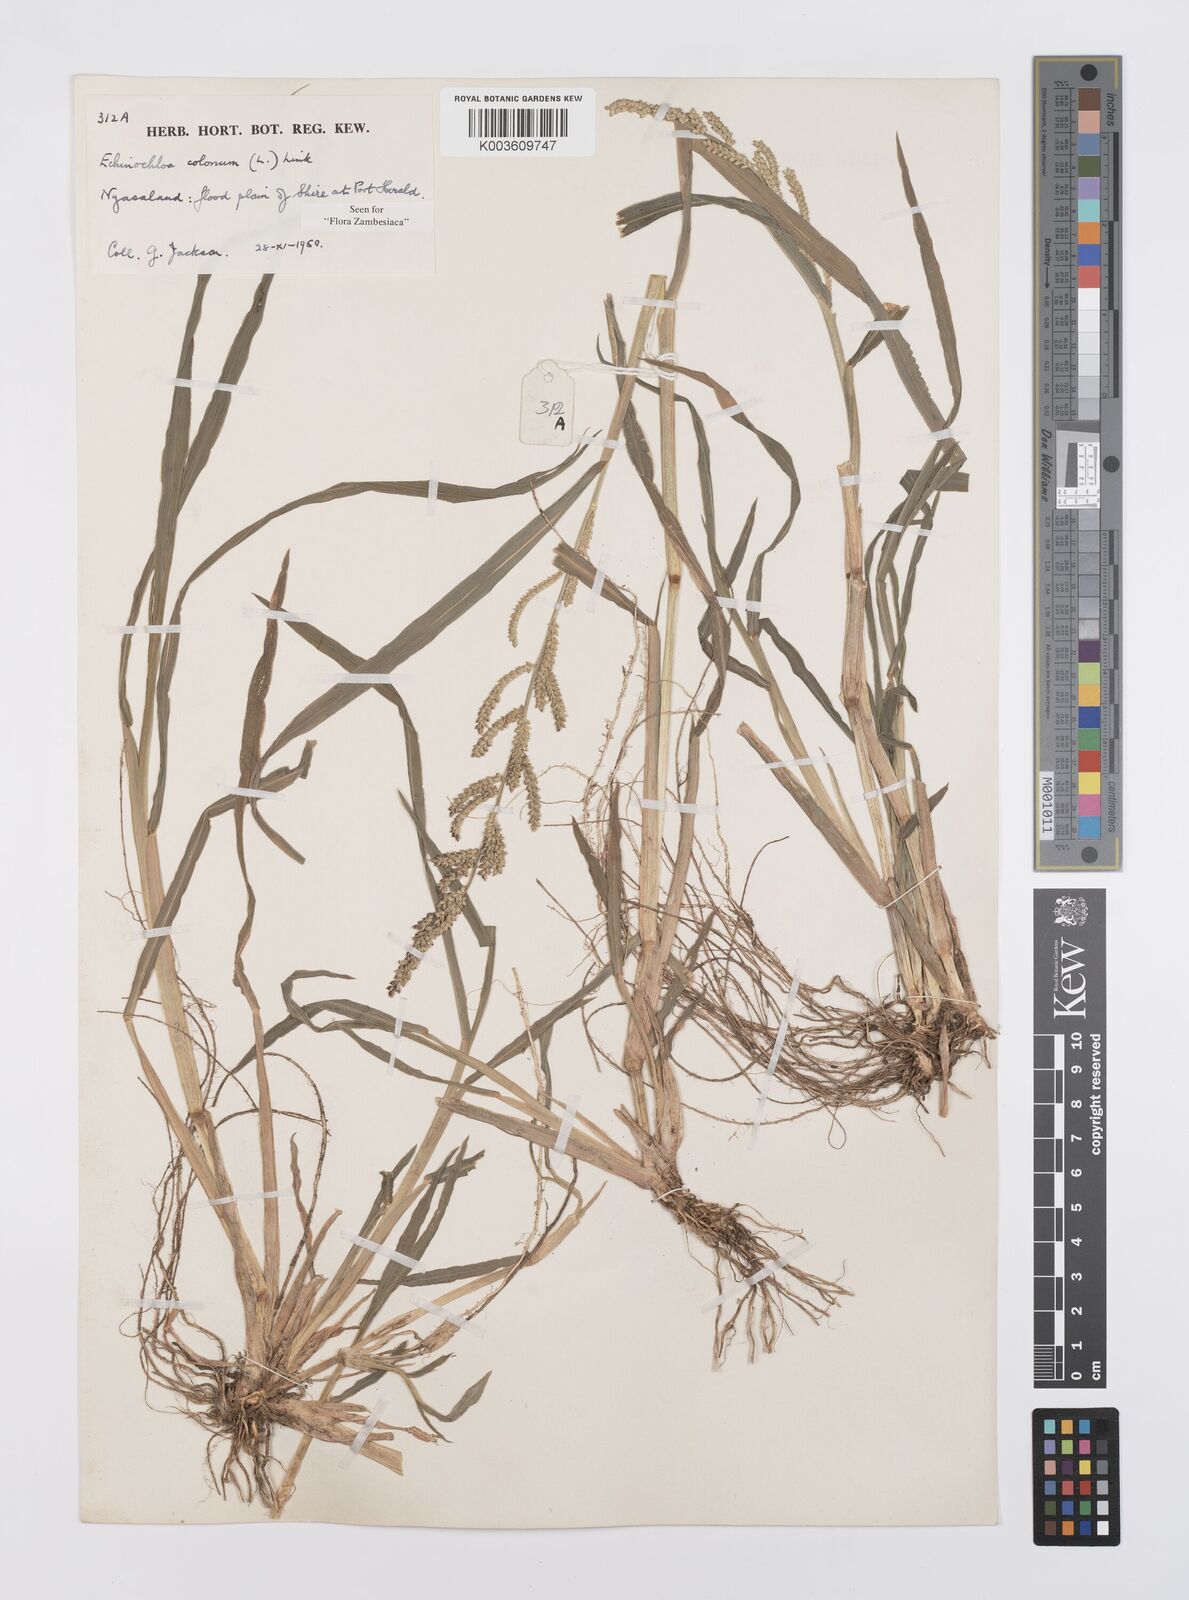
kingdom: Plantae
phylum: Tracheophyta
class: Liliopsida
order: Poales
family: Poaceae
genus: Echinochloa
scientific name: Echinochloa colonum
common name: Jungle rice
